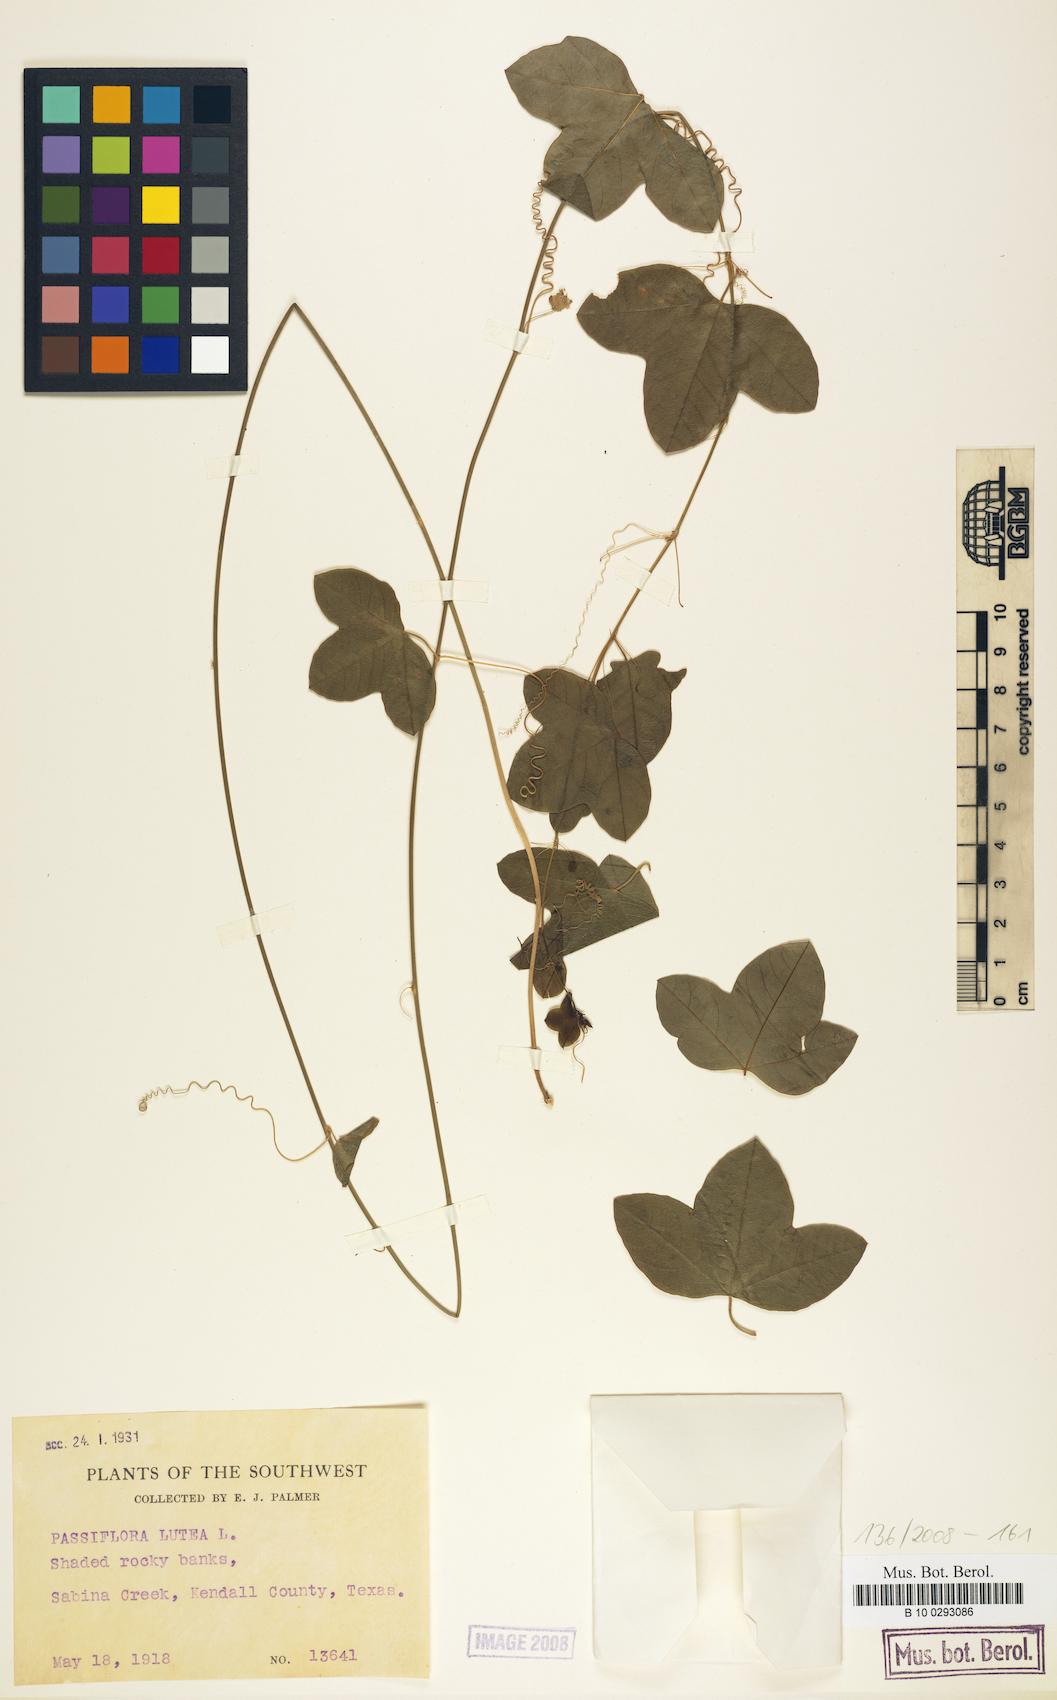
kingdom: Plantae
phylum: Tracheophyta
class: Magnoliopsida
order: Malpighiales
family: Passifloraceae
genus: Passiflora
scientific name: Passiflora lutea
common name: Yellow passionflower
